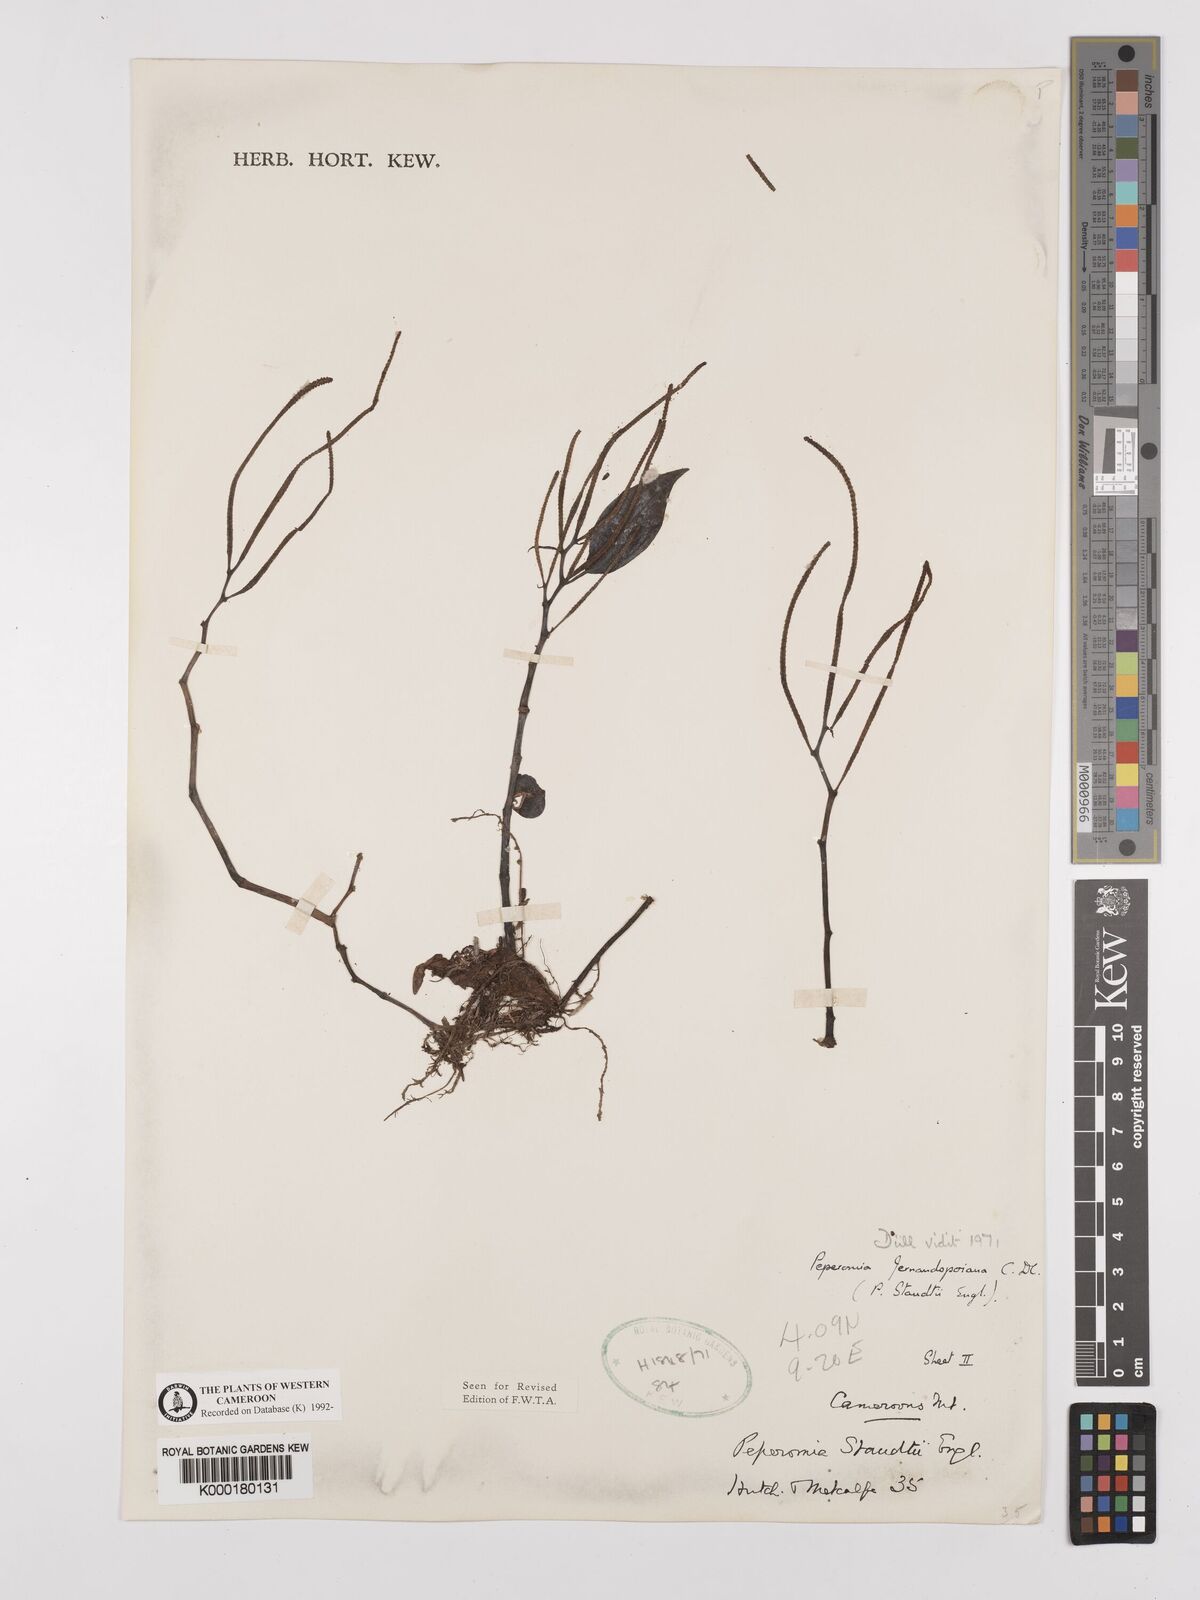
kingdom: Plantae
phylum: Tracheophyta
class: Magnoliopsida
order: Piperales
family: Piperaceae
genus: Peperomia
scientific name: Peperomia fernandopoiana
